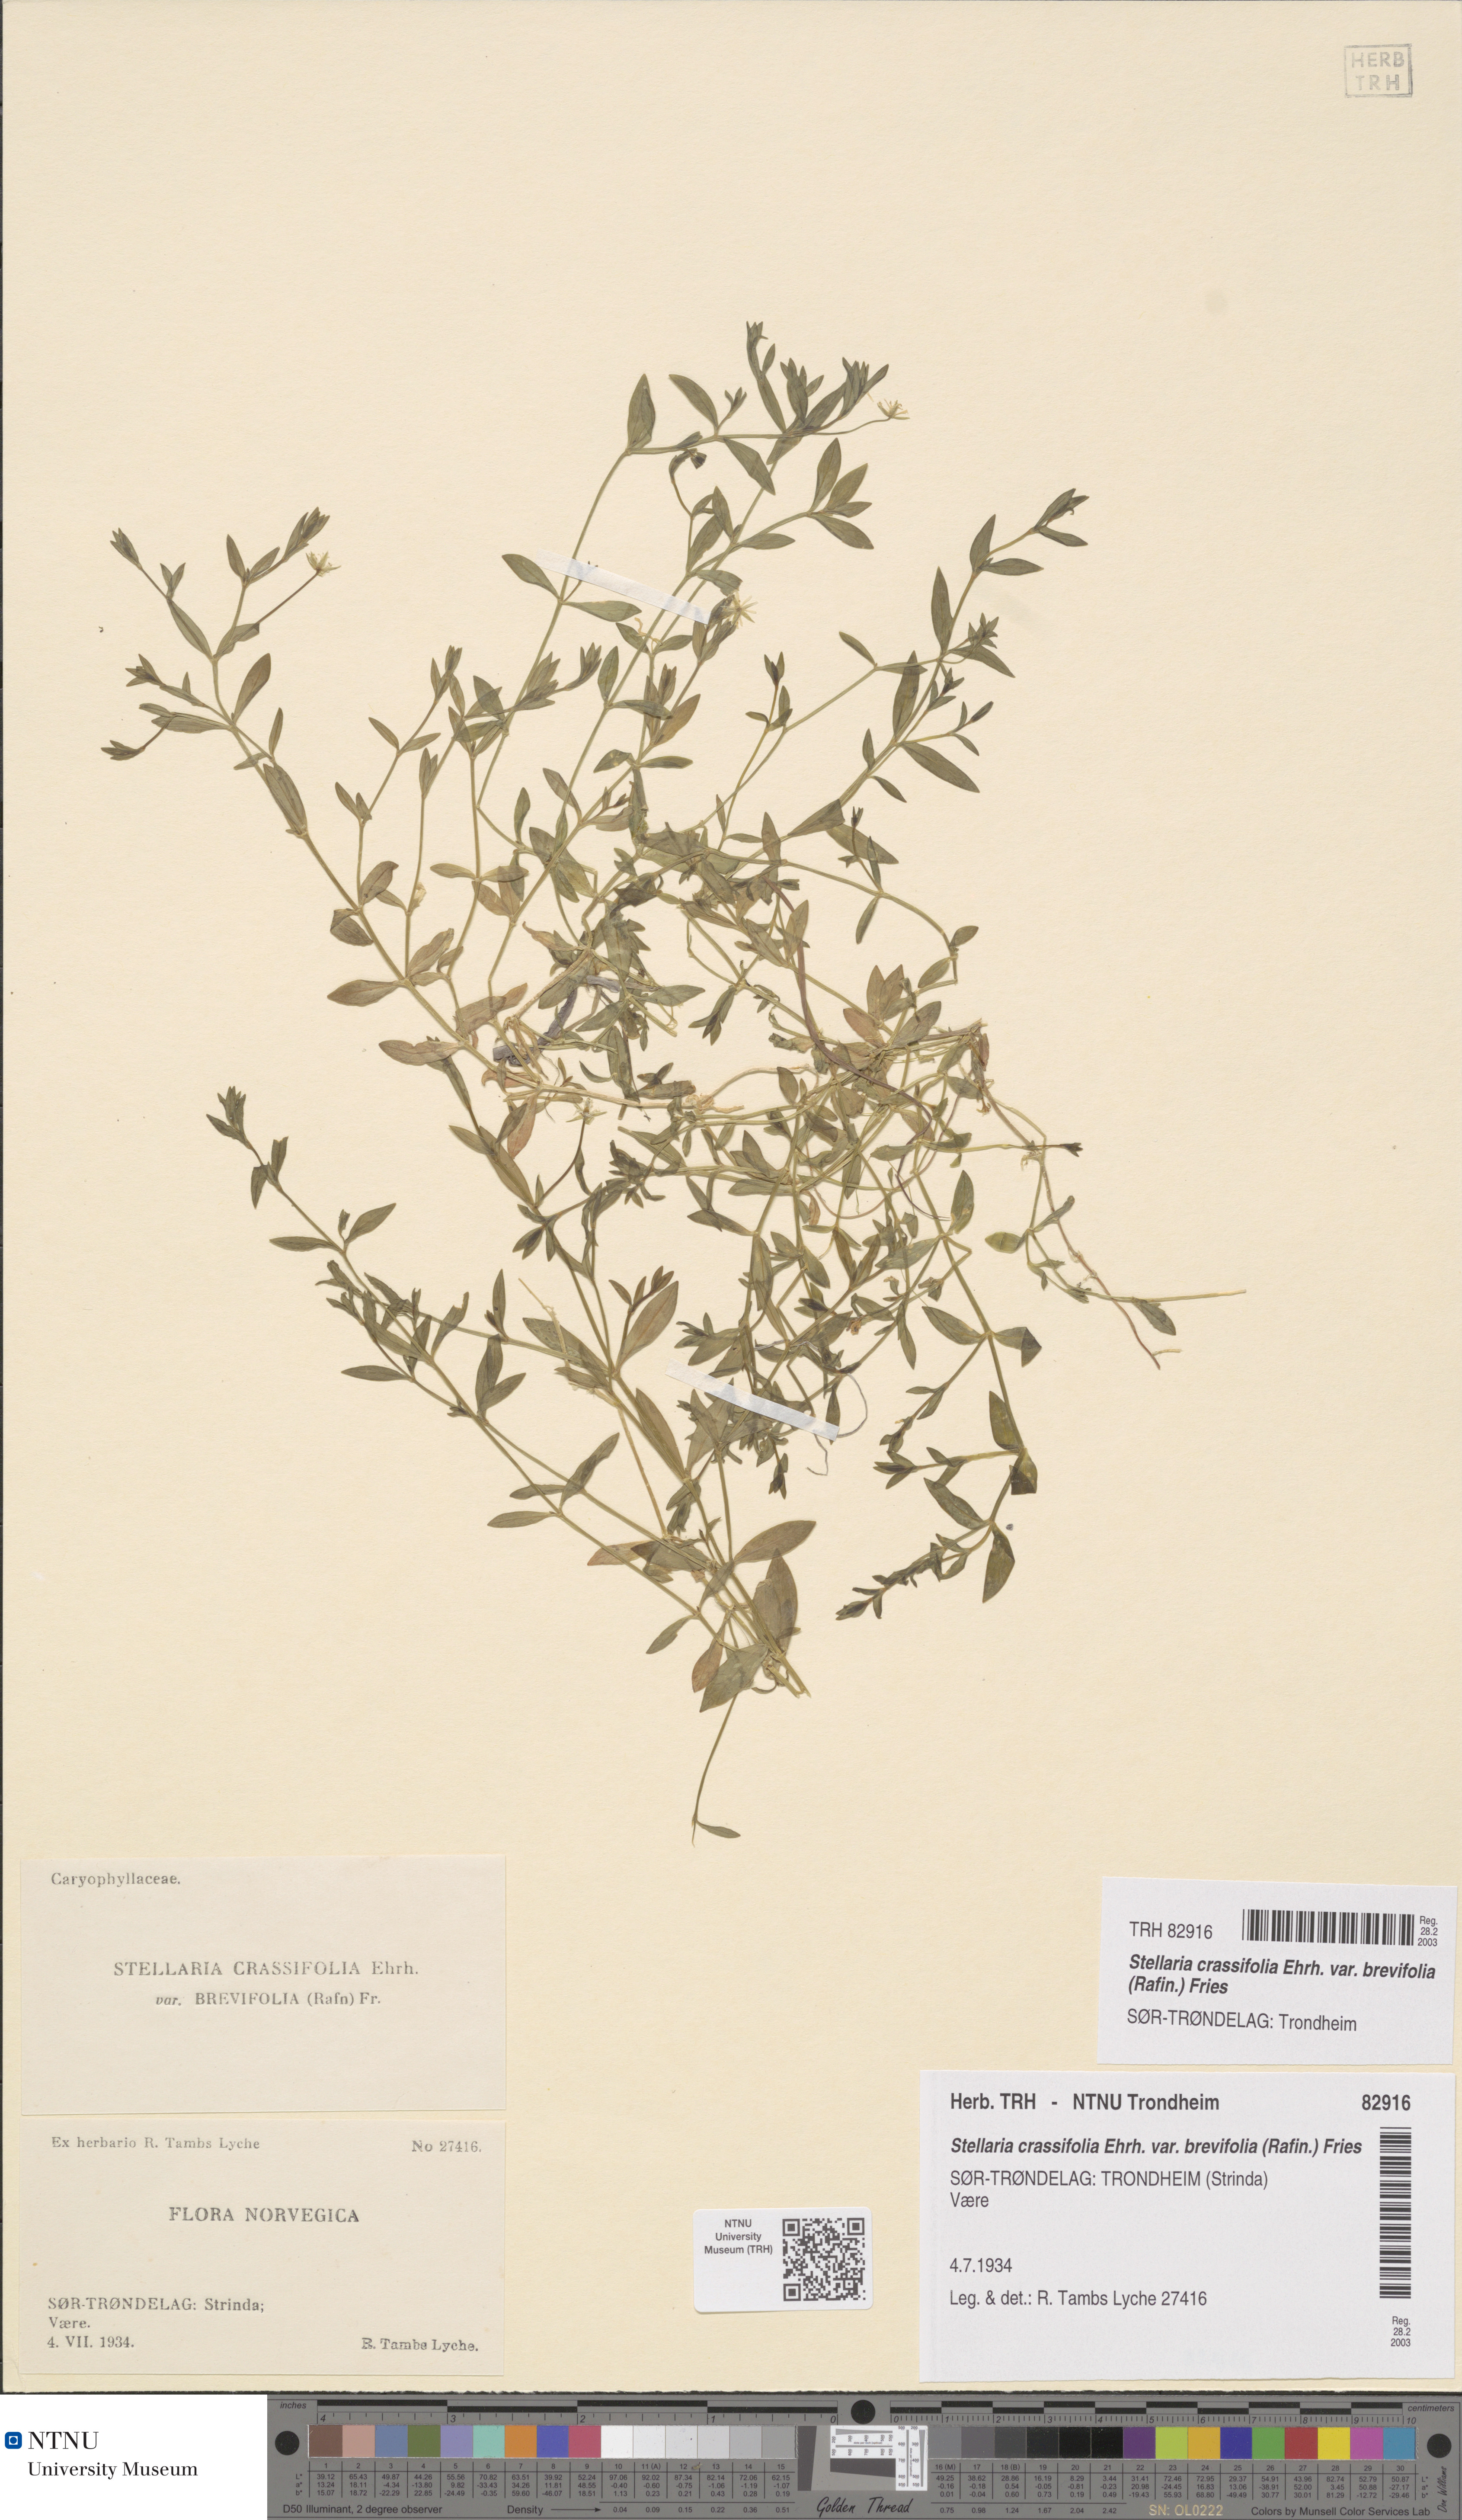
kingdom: Plantae
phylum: Tracheophyta
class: Magnoliopsida
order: Caryophyllales
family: Caryophyllaceae
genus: Stellaria
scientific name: Stellaria crassifolia
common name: Fleshy starwort
